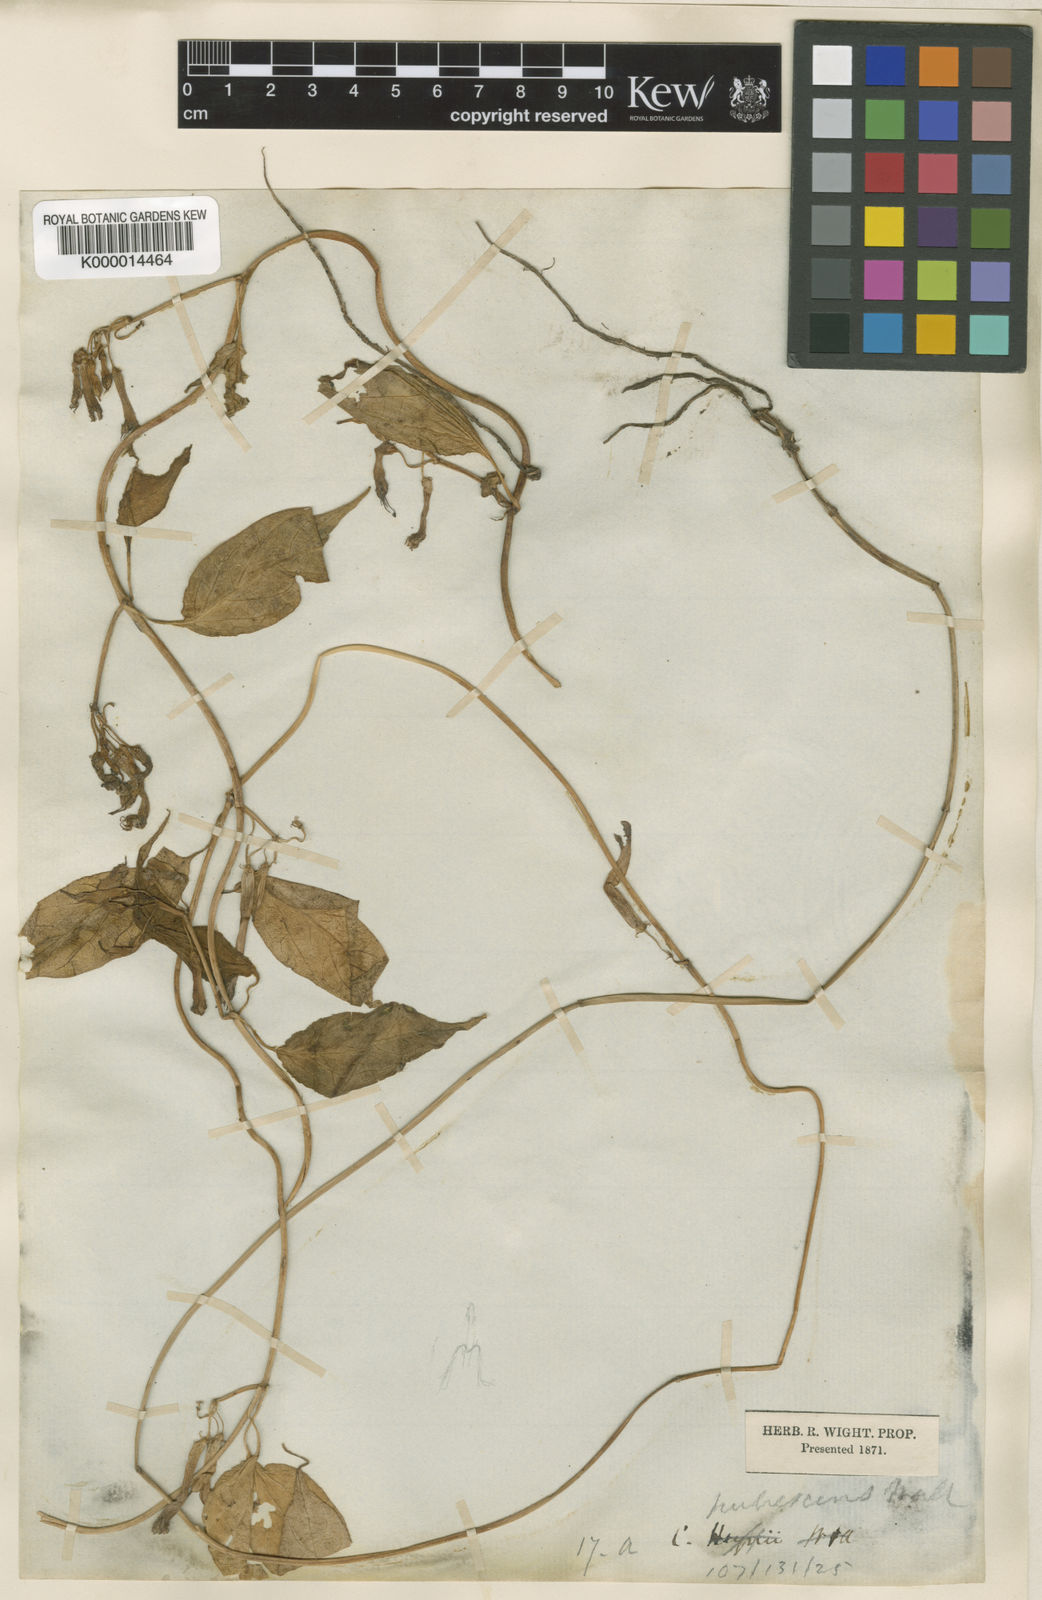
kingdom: Plantae
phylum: Tracheophyta
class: Magnoliopsida
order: Gentianales
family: Apocynaceae
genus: Ceropegia
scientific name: Ceropegia pubescens
